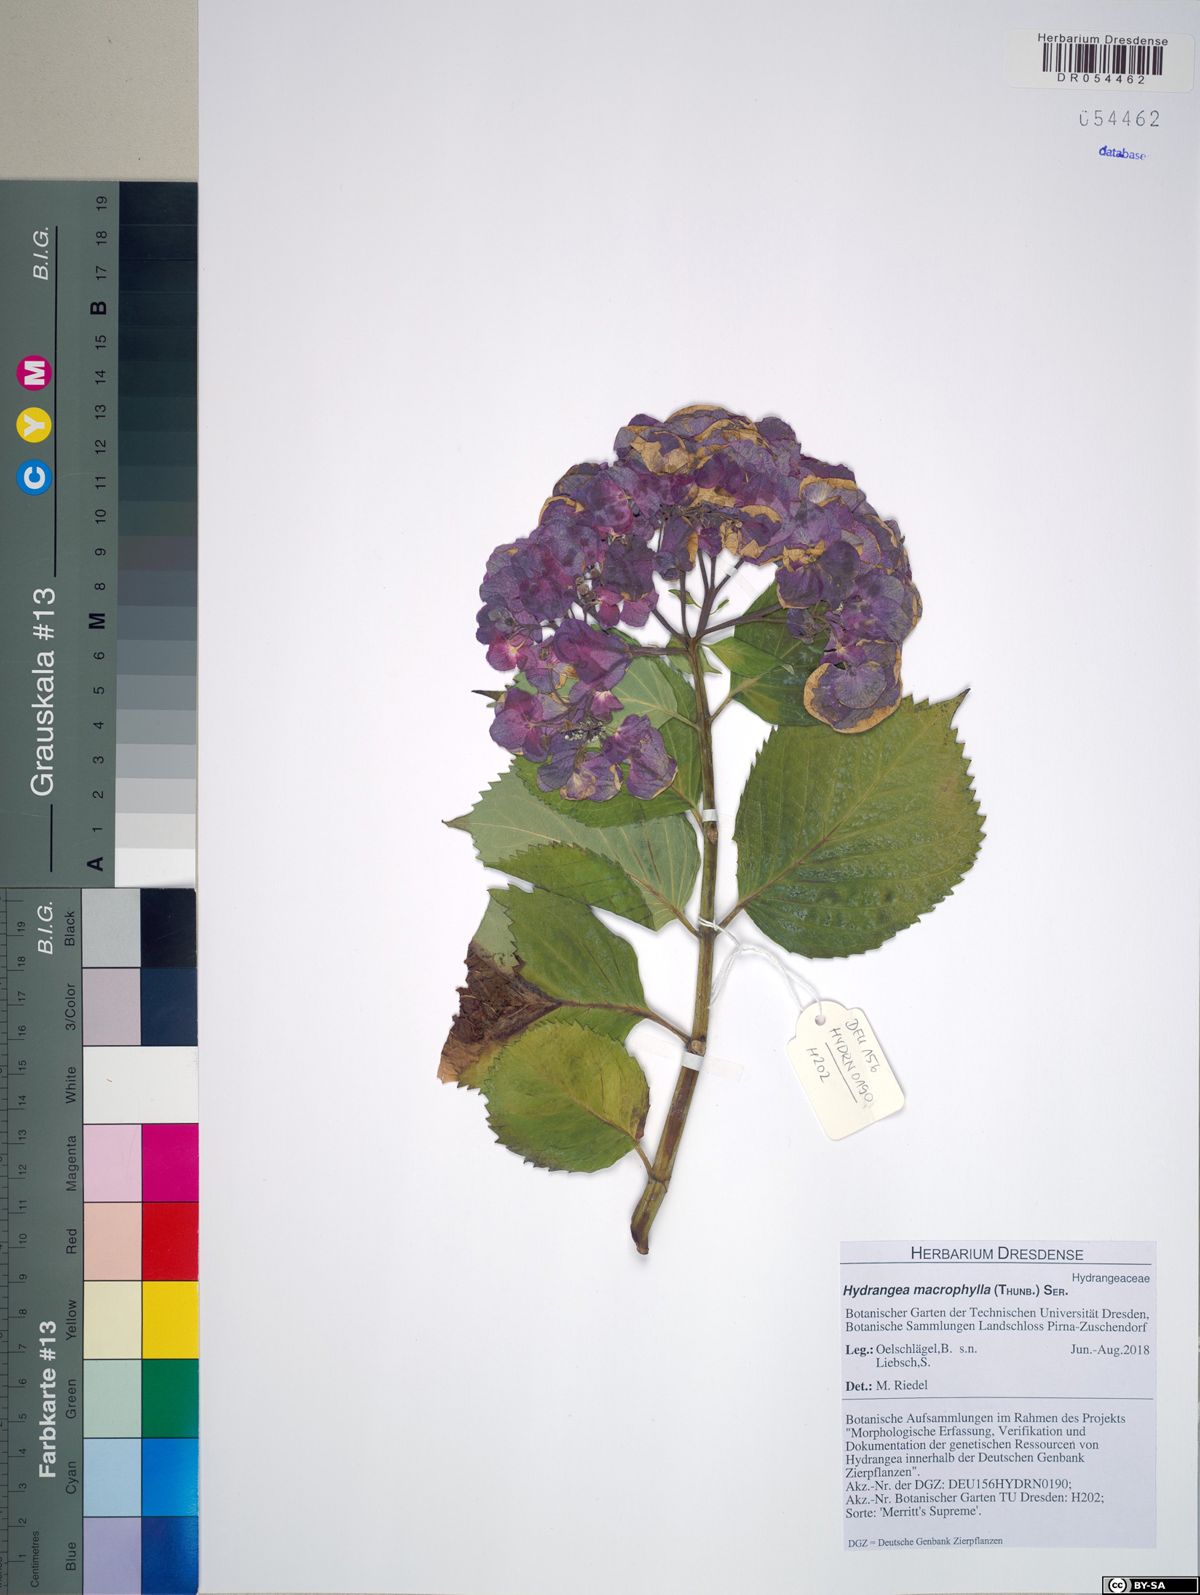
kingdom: Plantae
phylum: Tracheophyta
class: Magnoliopsida
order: Cornales
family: Hydrangeaceae
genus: Hydrangea
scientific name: Hydrangea macrophylla
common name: Hydrangea
